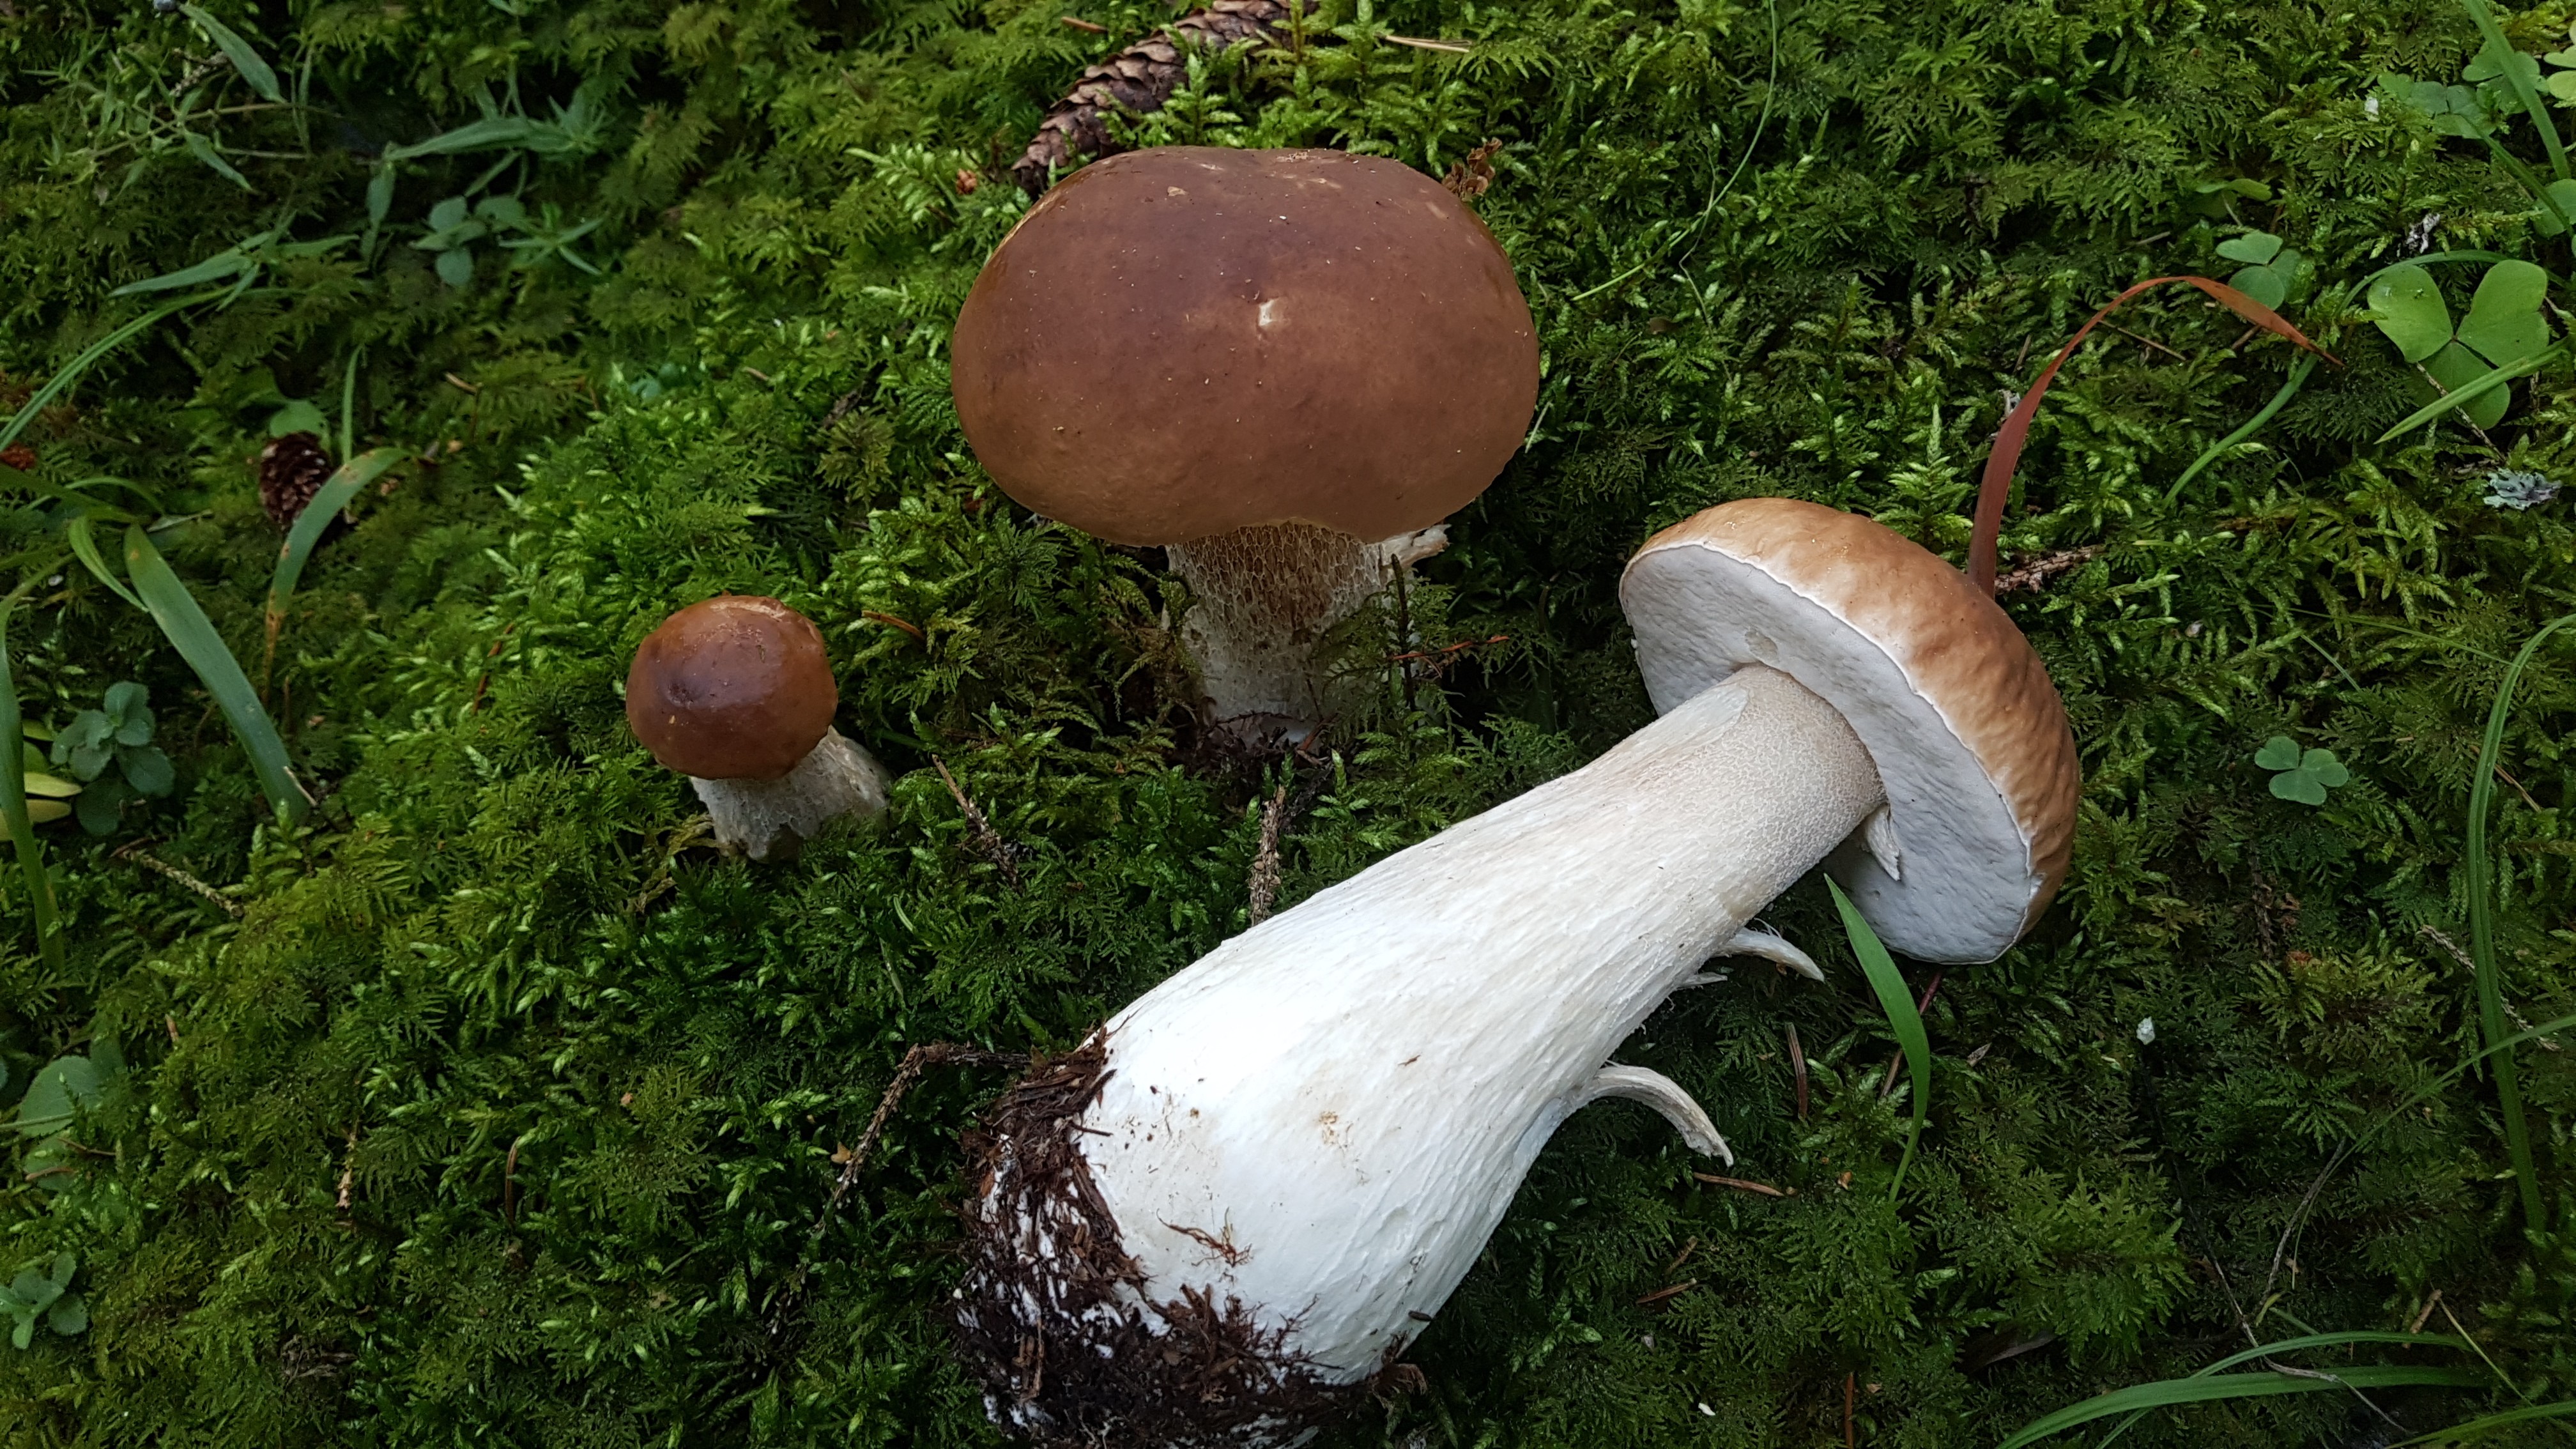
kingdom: Fungi
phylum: Basidiomycota
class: Agaricomycetes
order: Boletales
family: Boletaceae
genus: Boletus
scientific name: Boletus edulis
